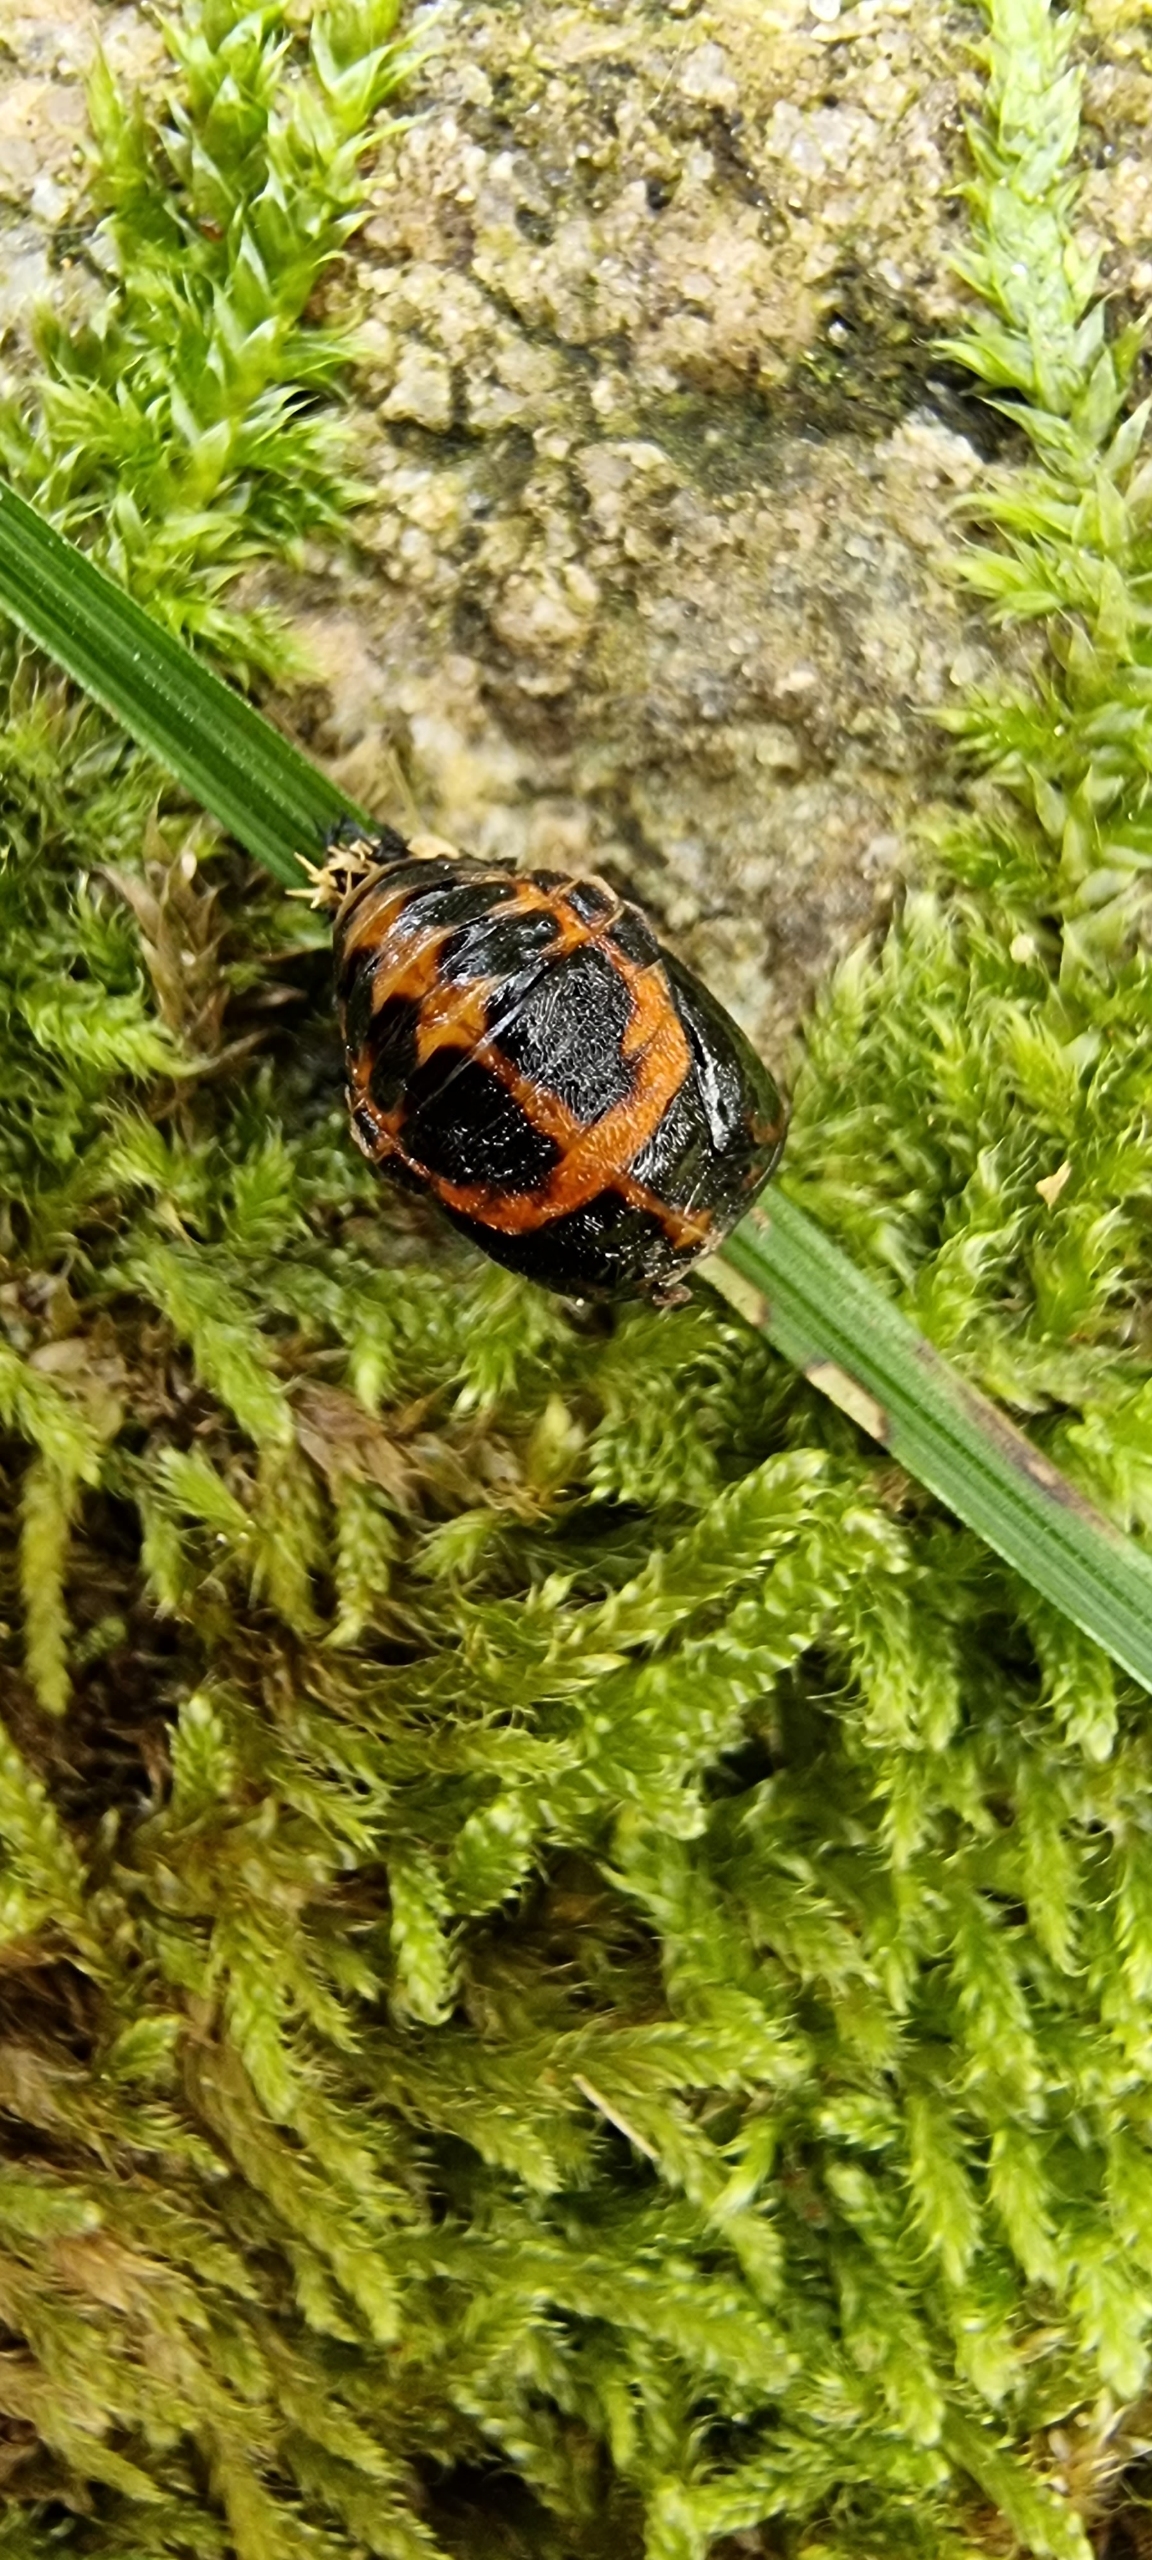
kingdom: Animalia
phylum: Arthropoda
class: Insecta
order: Coleoptera
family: Coccinellidae
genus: Harmonia
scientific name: Harmonia axyridis
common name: Harlekinmariehøne
